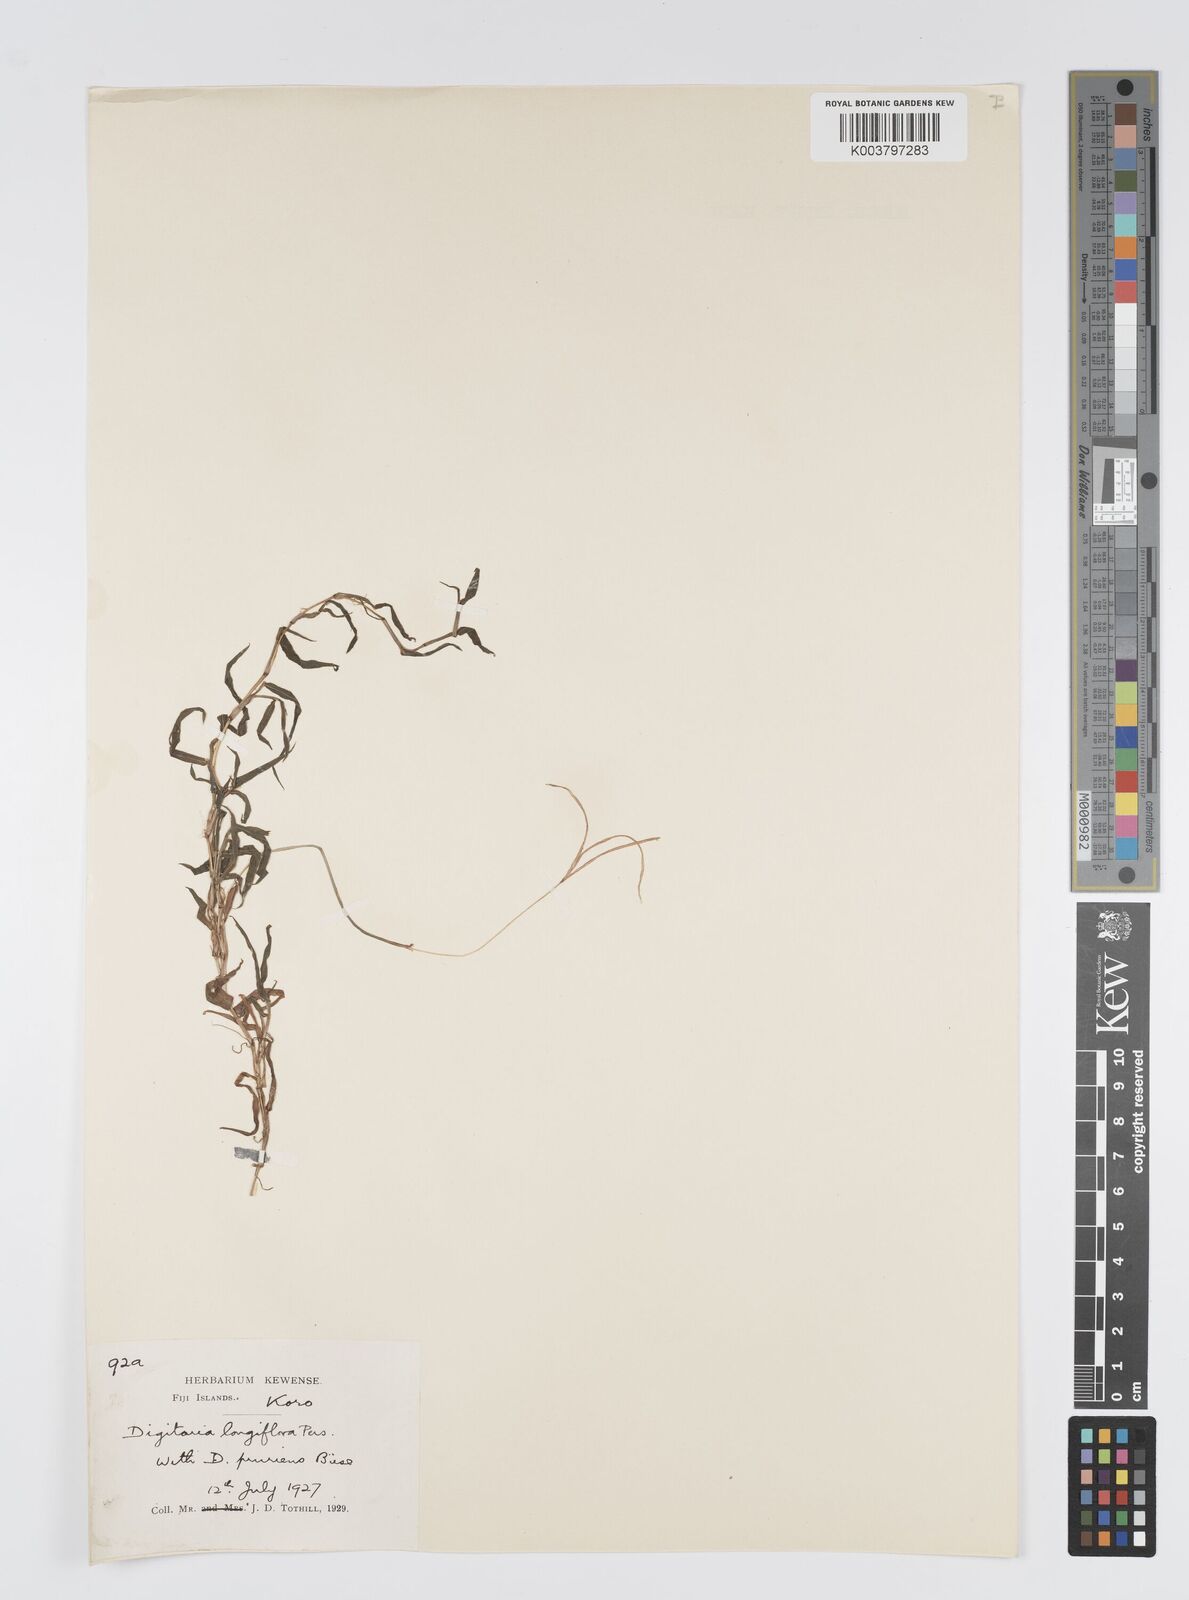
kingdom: Plantae
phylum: Tracheophyta
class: Liliopsida
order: Poales
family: Poaceae
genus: Digitaria
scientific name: Digitaria fuscescens
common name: Yellow crabgrass
